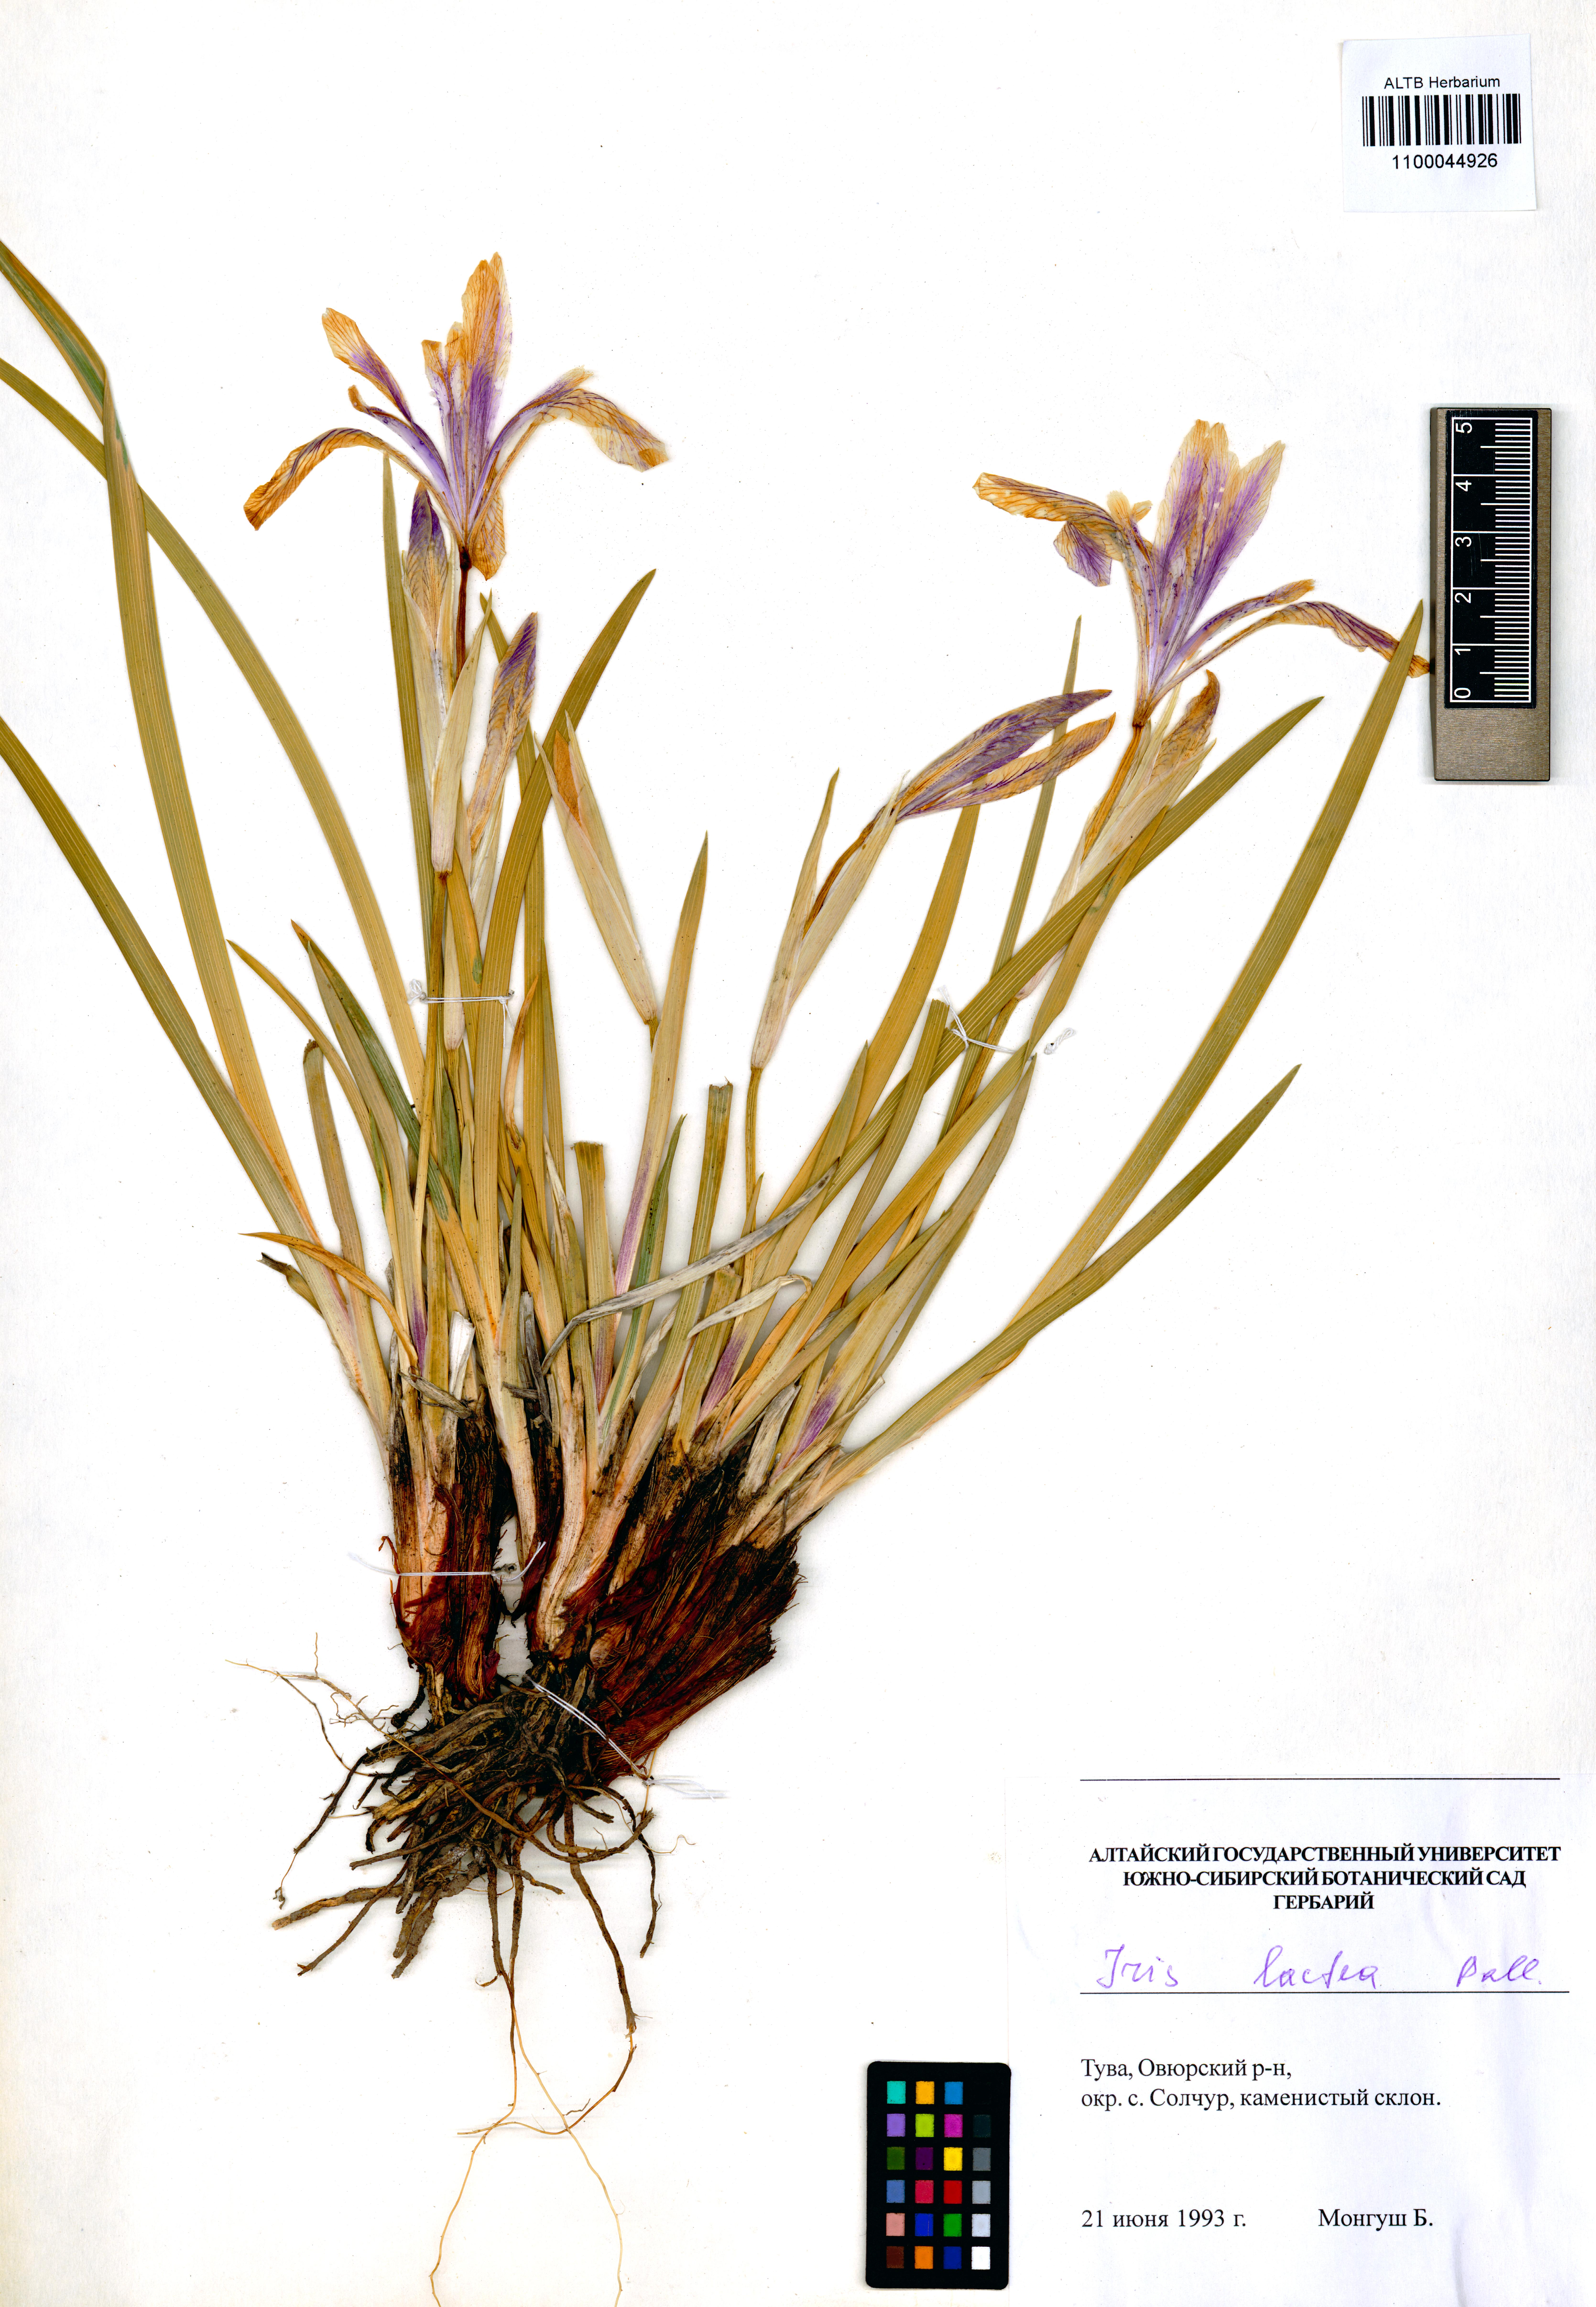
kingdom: Plantae
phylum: Tracheophyta
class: Liliopsida
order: Asparagales
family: Iridaceae
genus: Iris
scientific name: Iris lactea
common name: White-flower chinese iris
